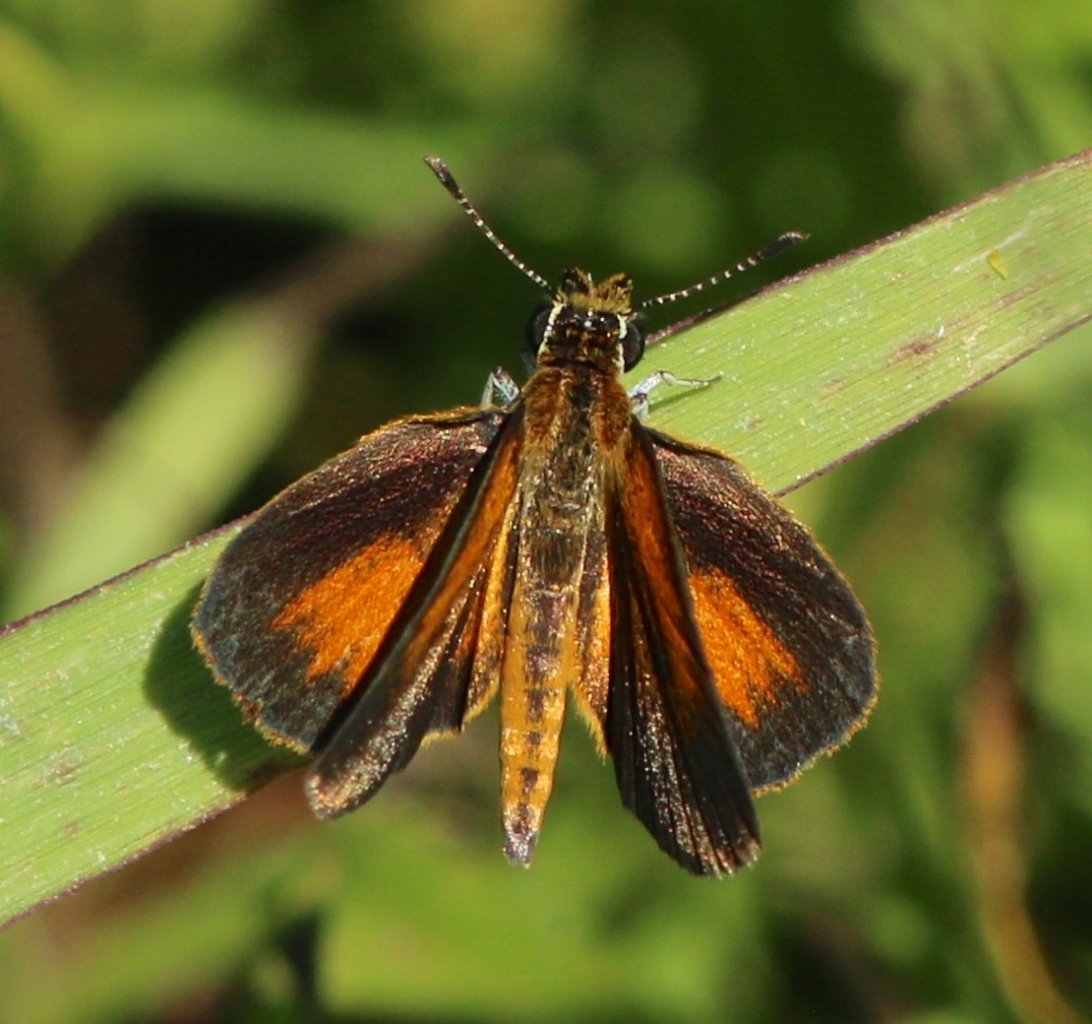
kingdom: Animalia
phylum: Arthropoda
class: Insecta
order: Lepidoptera
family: Hesperiidae
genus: Ancyloxypha
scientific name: Ancyloxypha numitor
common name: Least Skipper
